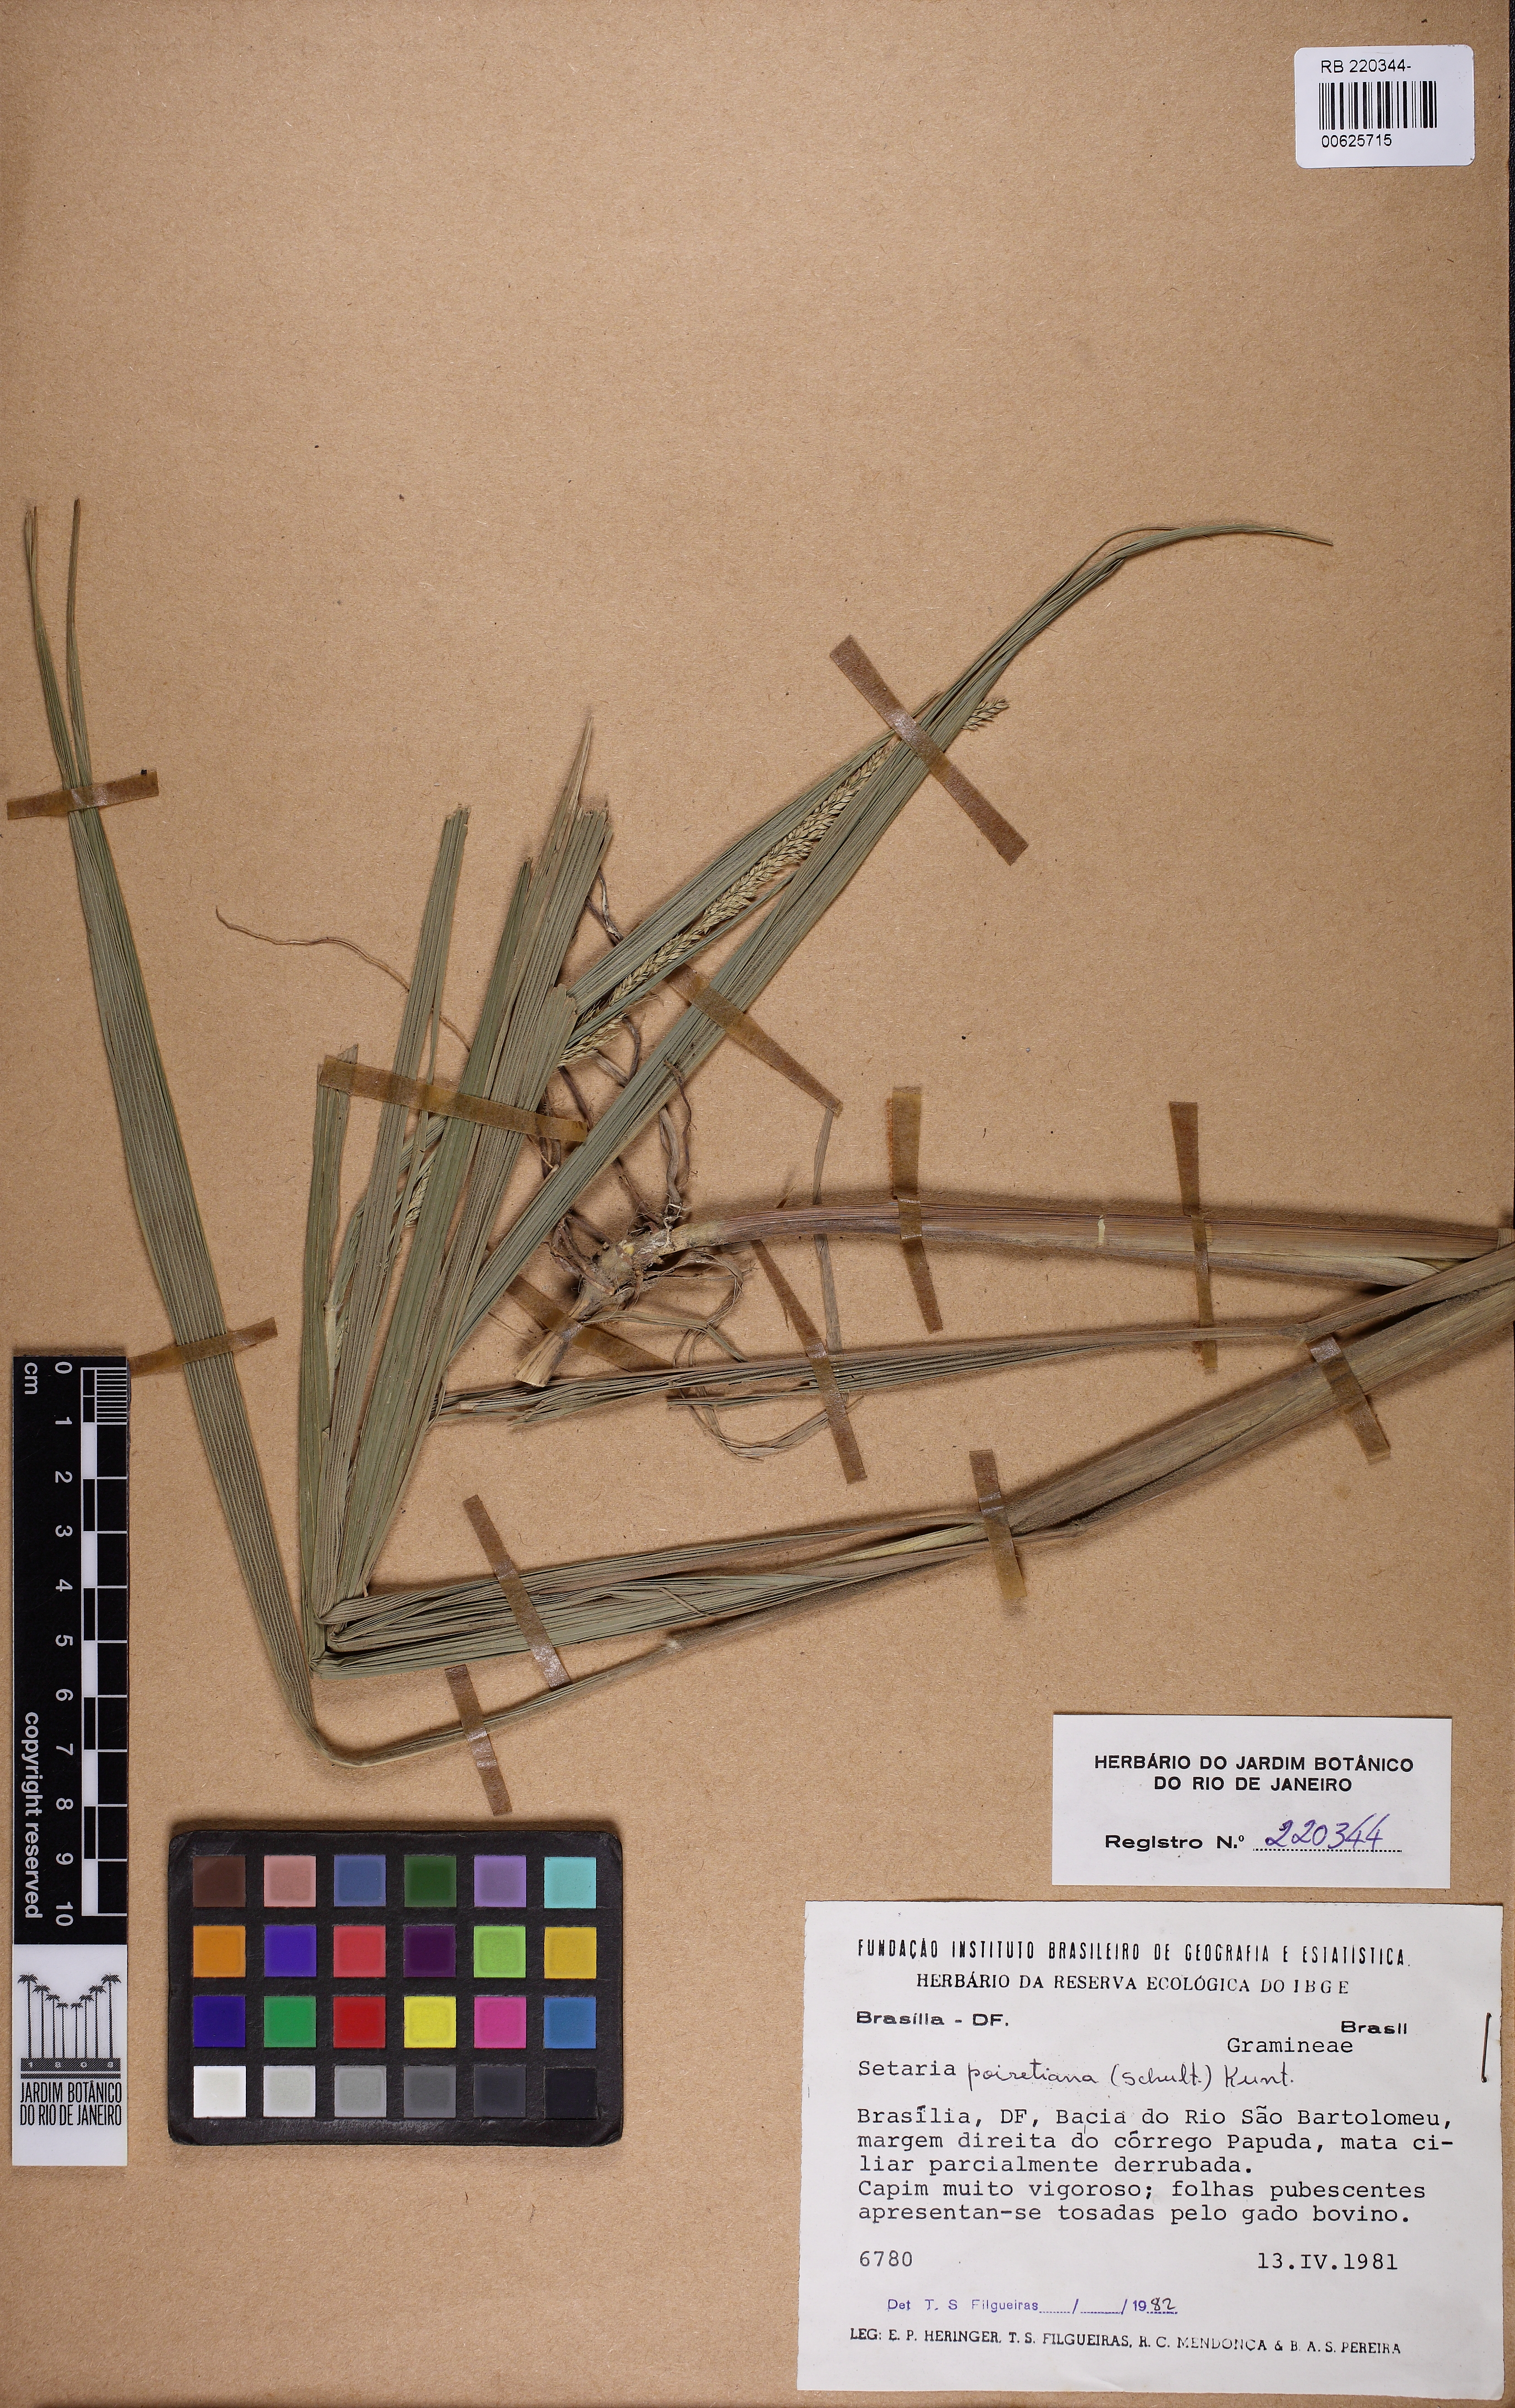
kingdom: Plantae
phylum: Tracheophyta
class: Liliopsida
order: Poales
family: Poaceae
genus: Setaria
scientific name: Setaria poiretiana
